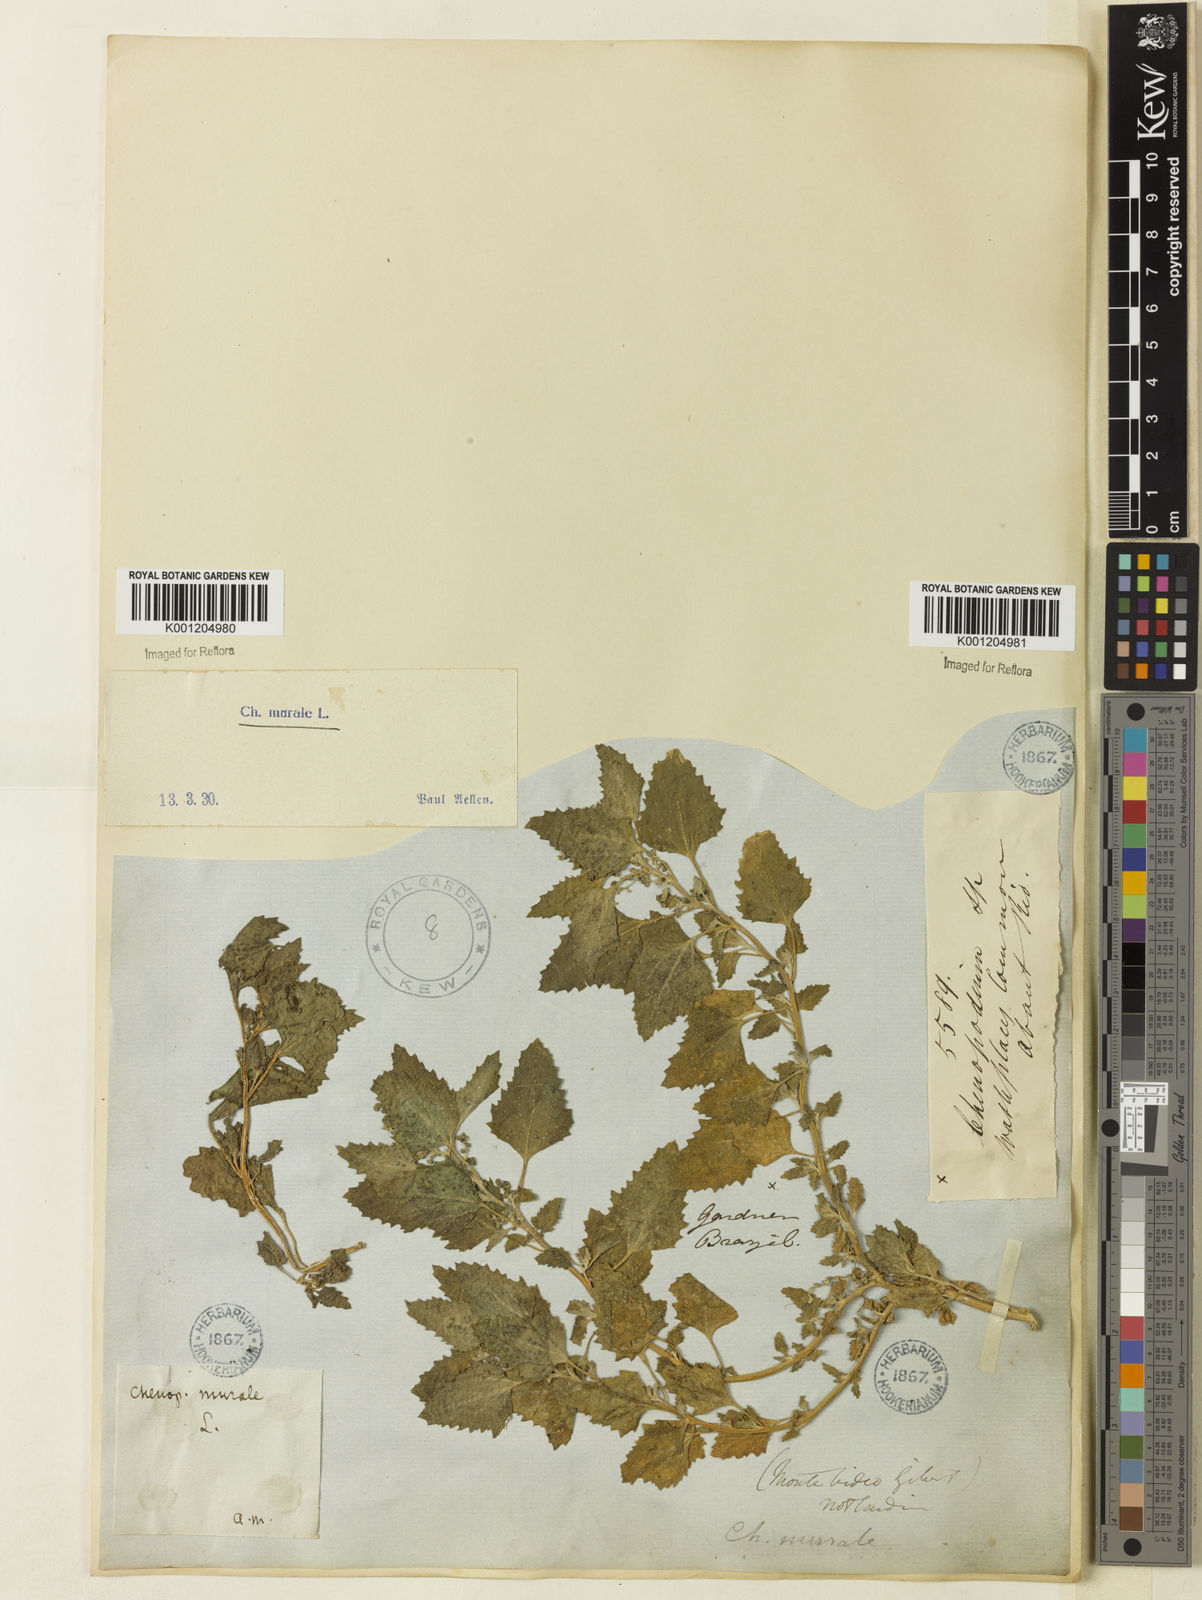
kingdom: Plantae
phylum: Tracheophyta
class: Magnoliopsida
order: Caryophyllales
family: Amaranthaceae
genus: Chenopodiastrum
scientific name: Chenopodiastrum
